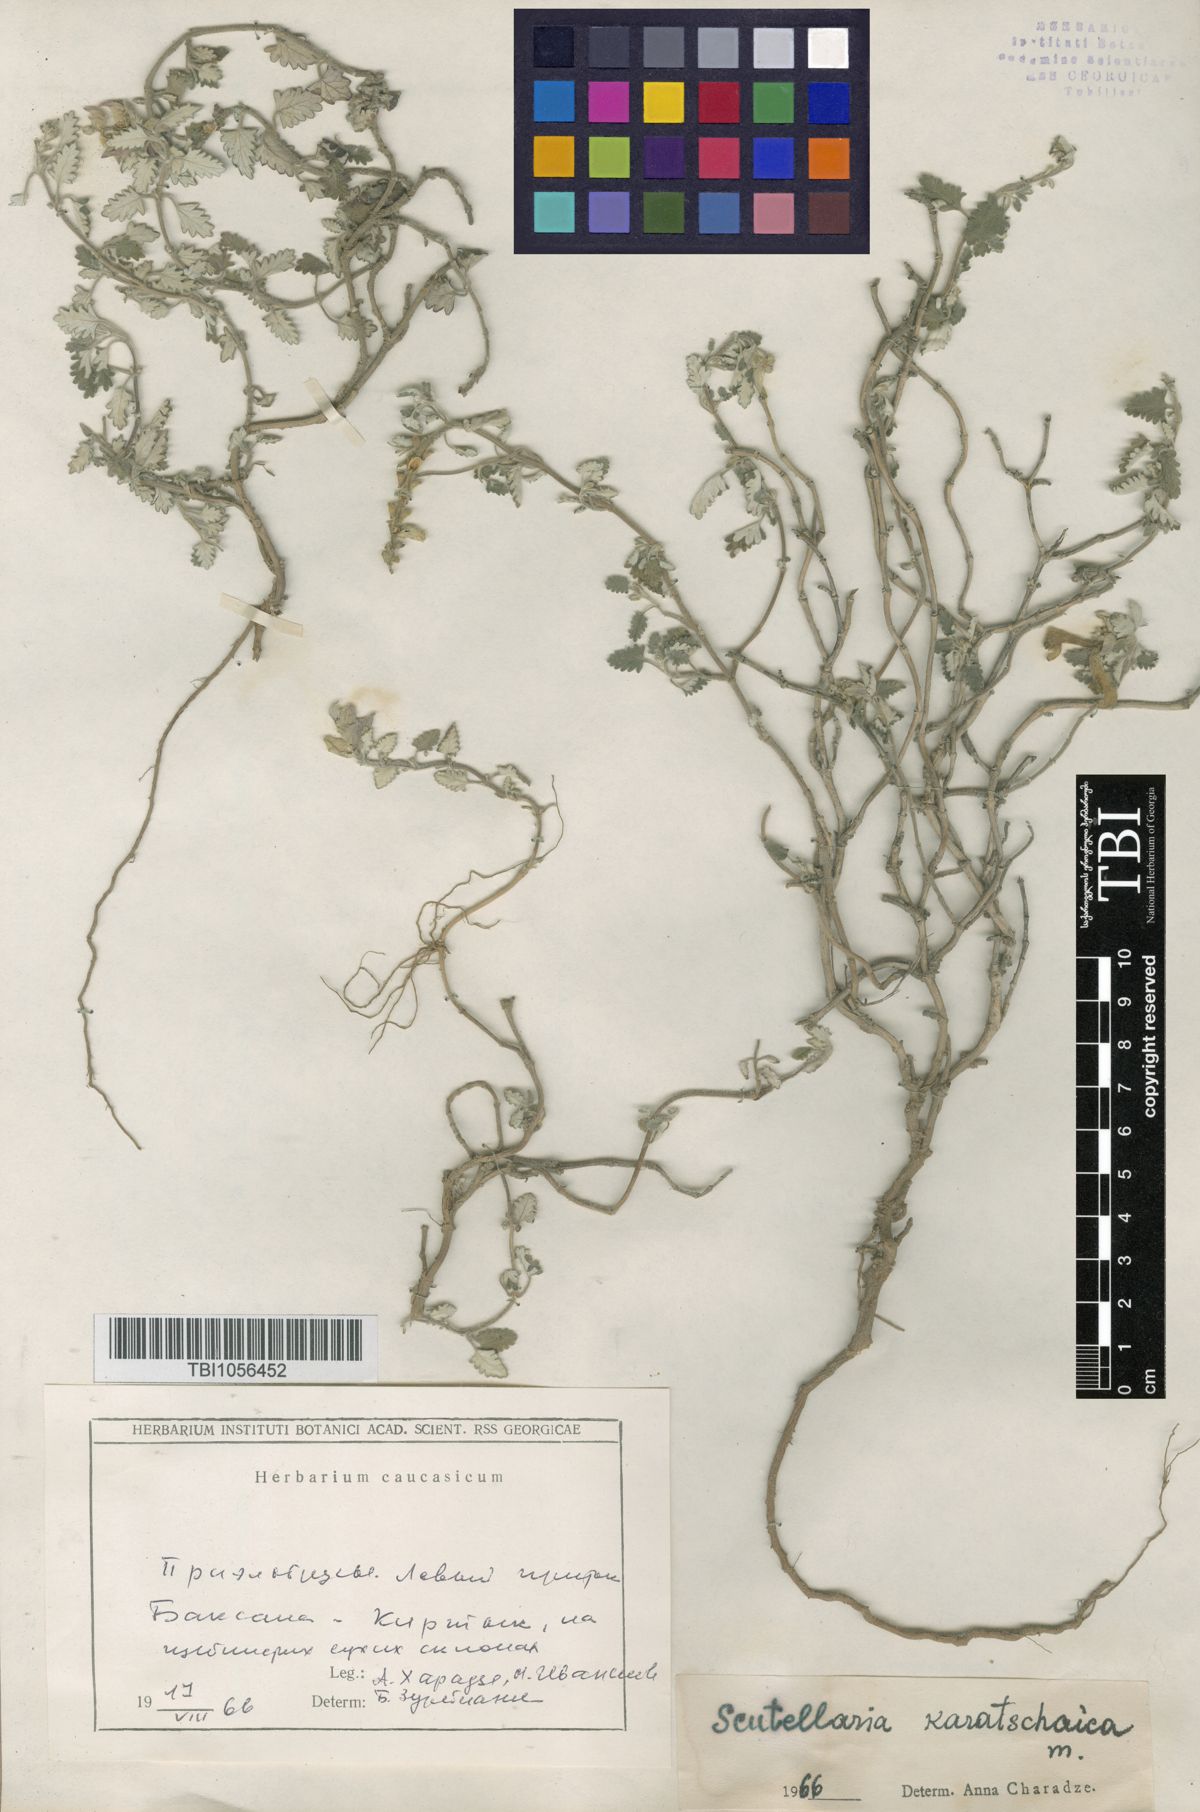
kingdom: Plantae
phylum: Tracheophyta
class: Magnoliopsida
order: Lamiales
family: Lamiaceae
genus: Scutellaria
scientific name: Scutellaria orientalis
